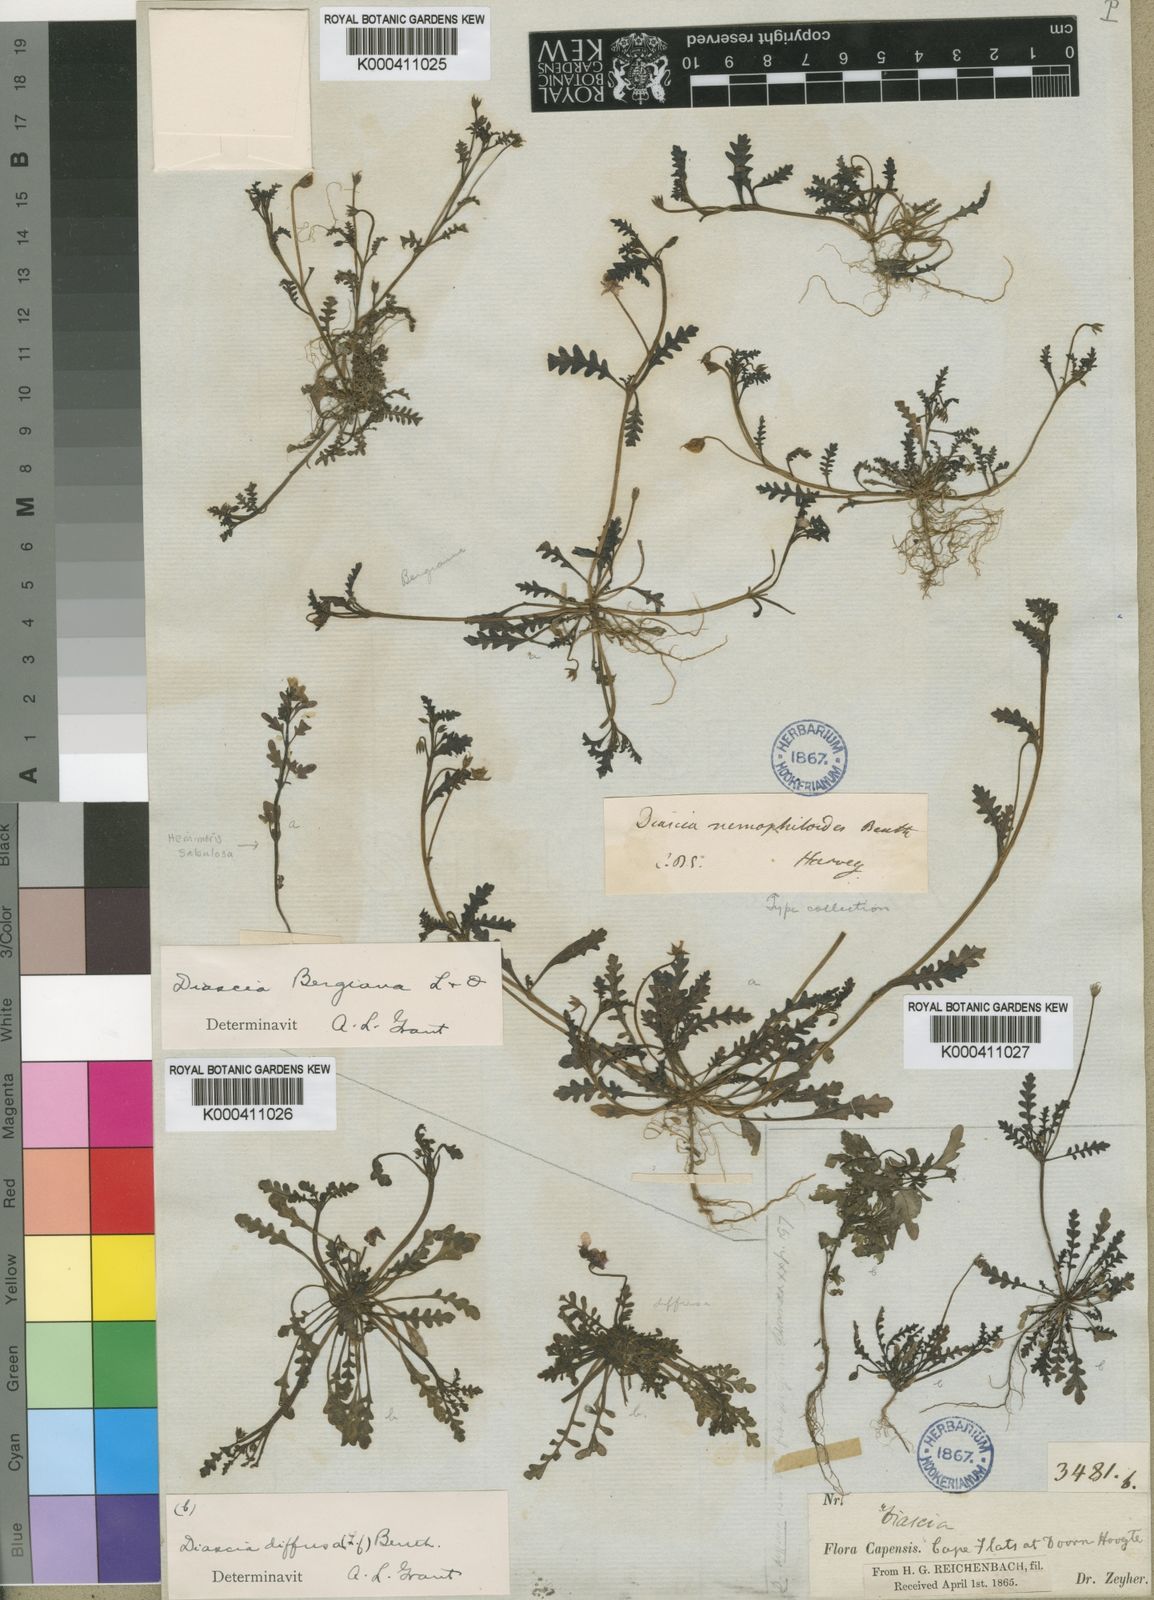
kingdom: Plantae
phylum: Tracheophyta
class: Magnoliopsida
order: Lamiales
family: Scrophulariaceae
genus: Diascia
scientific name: Diascia bergiana
